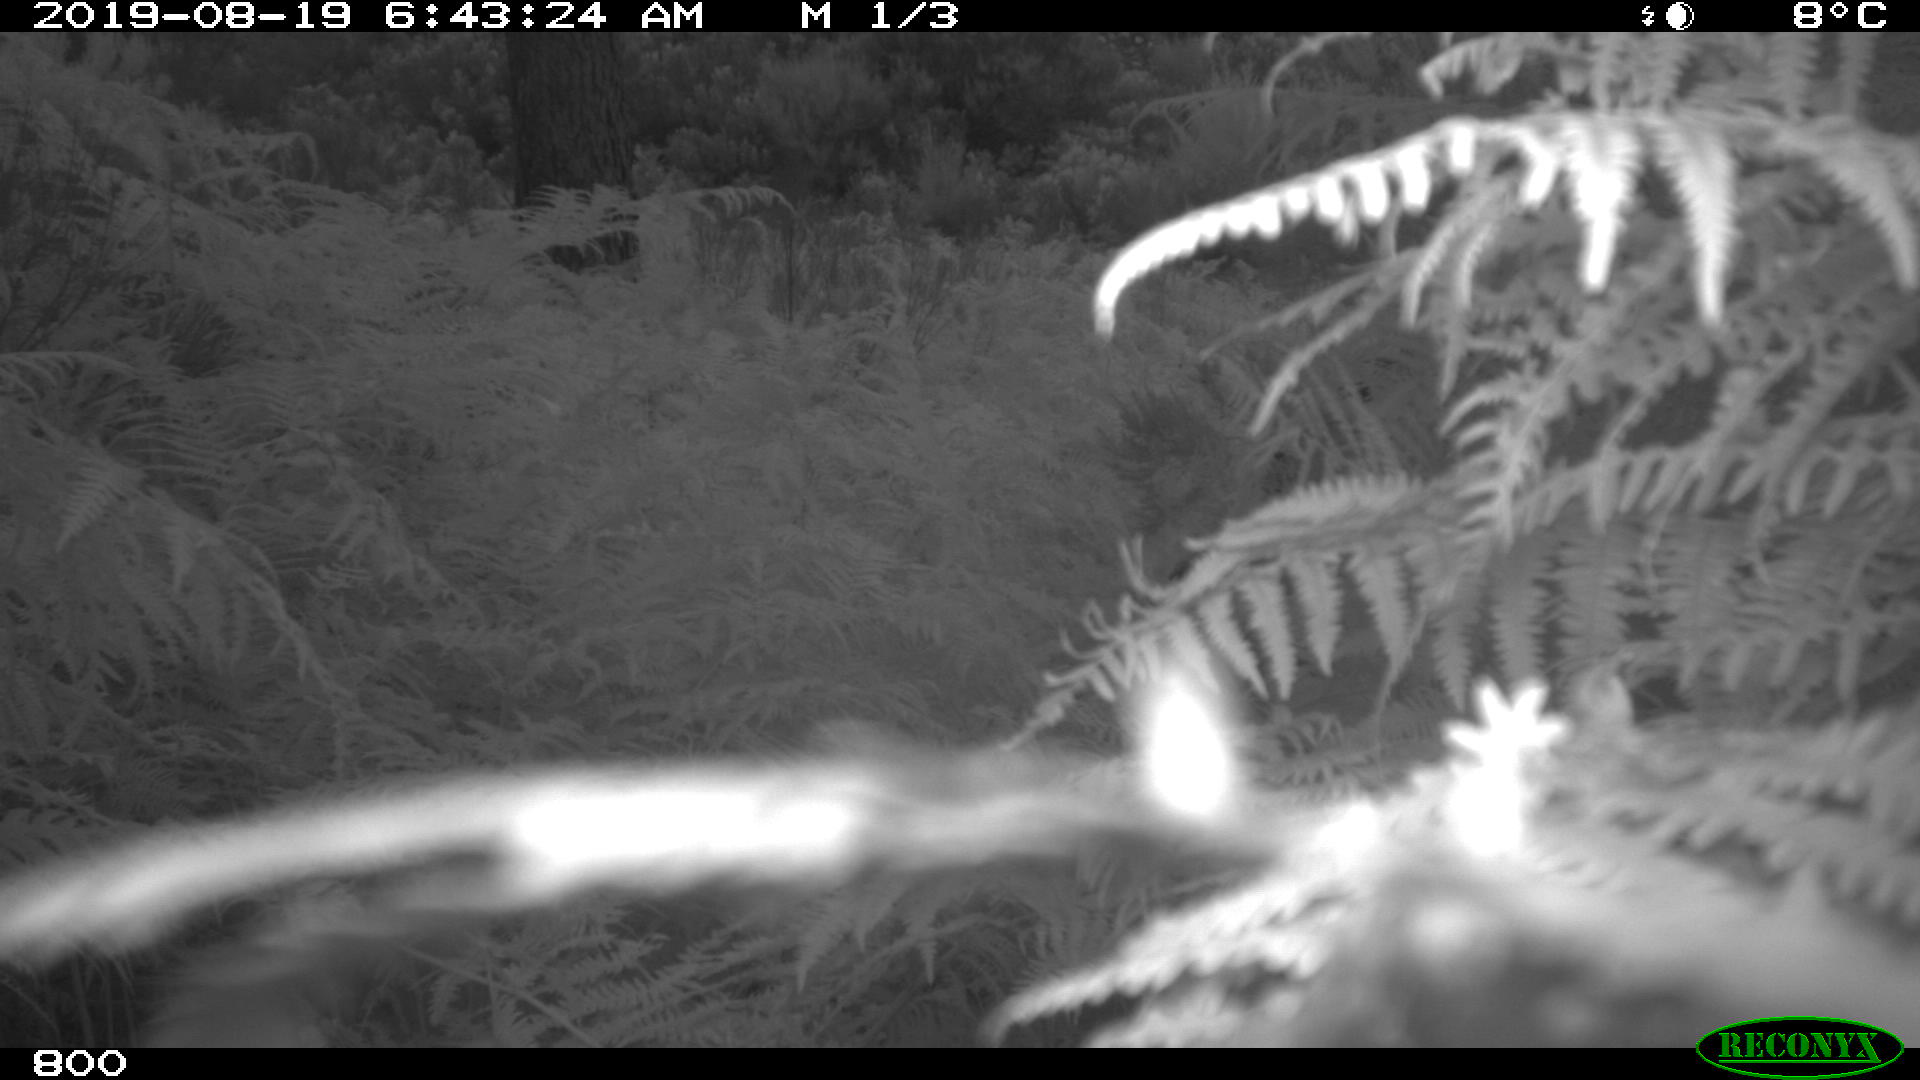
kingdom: Animalia
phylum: Chordata
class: Mammalia
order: Perissodactyla
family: Equidae
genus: Equus
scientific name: Equus caballus
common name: Horse
